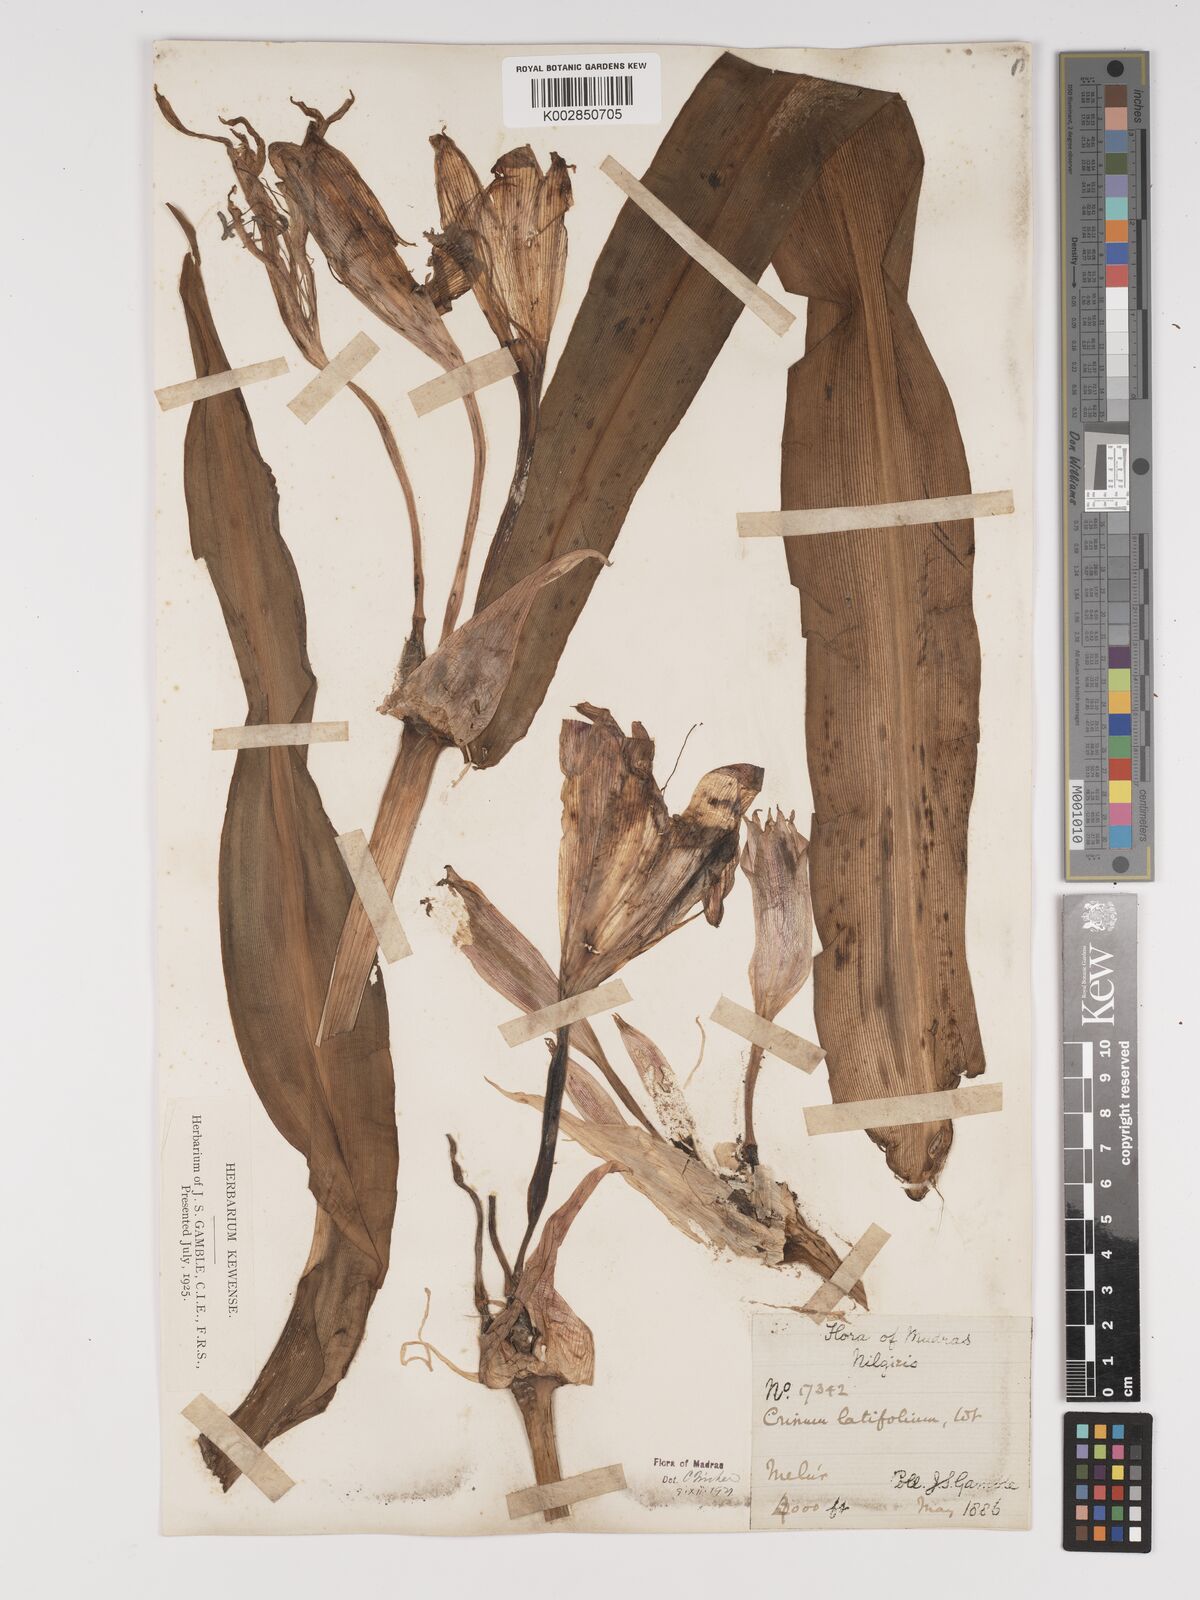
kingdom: Plantae
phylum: Tracheophyta
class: Liliopsida
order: Asparagales
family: Amaryllidaceae
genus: Crinum
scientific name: Crinum latifolium
